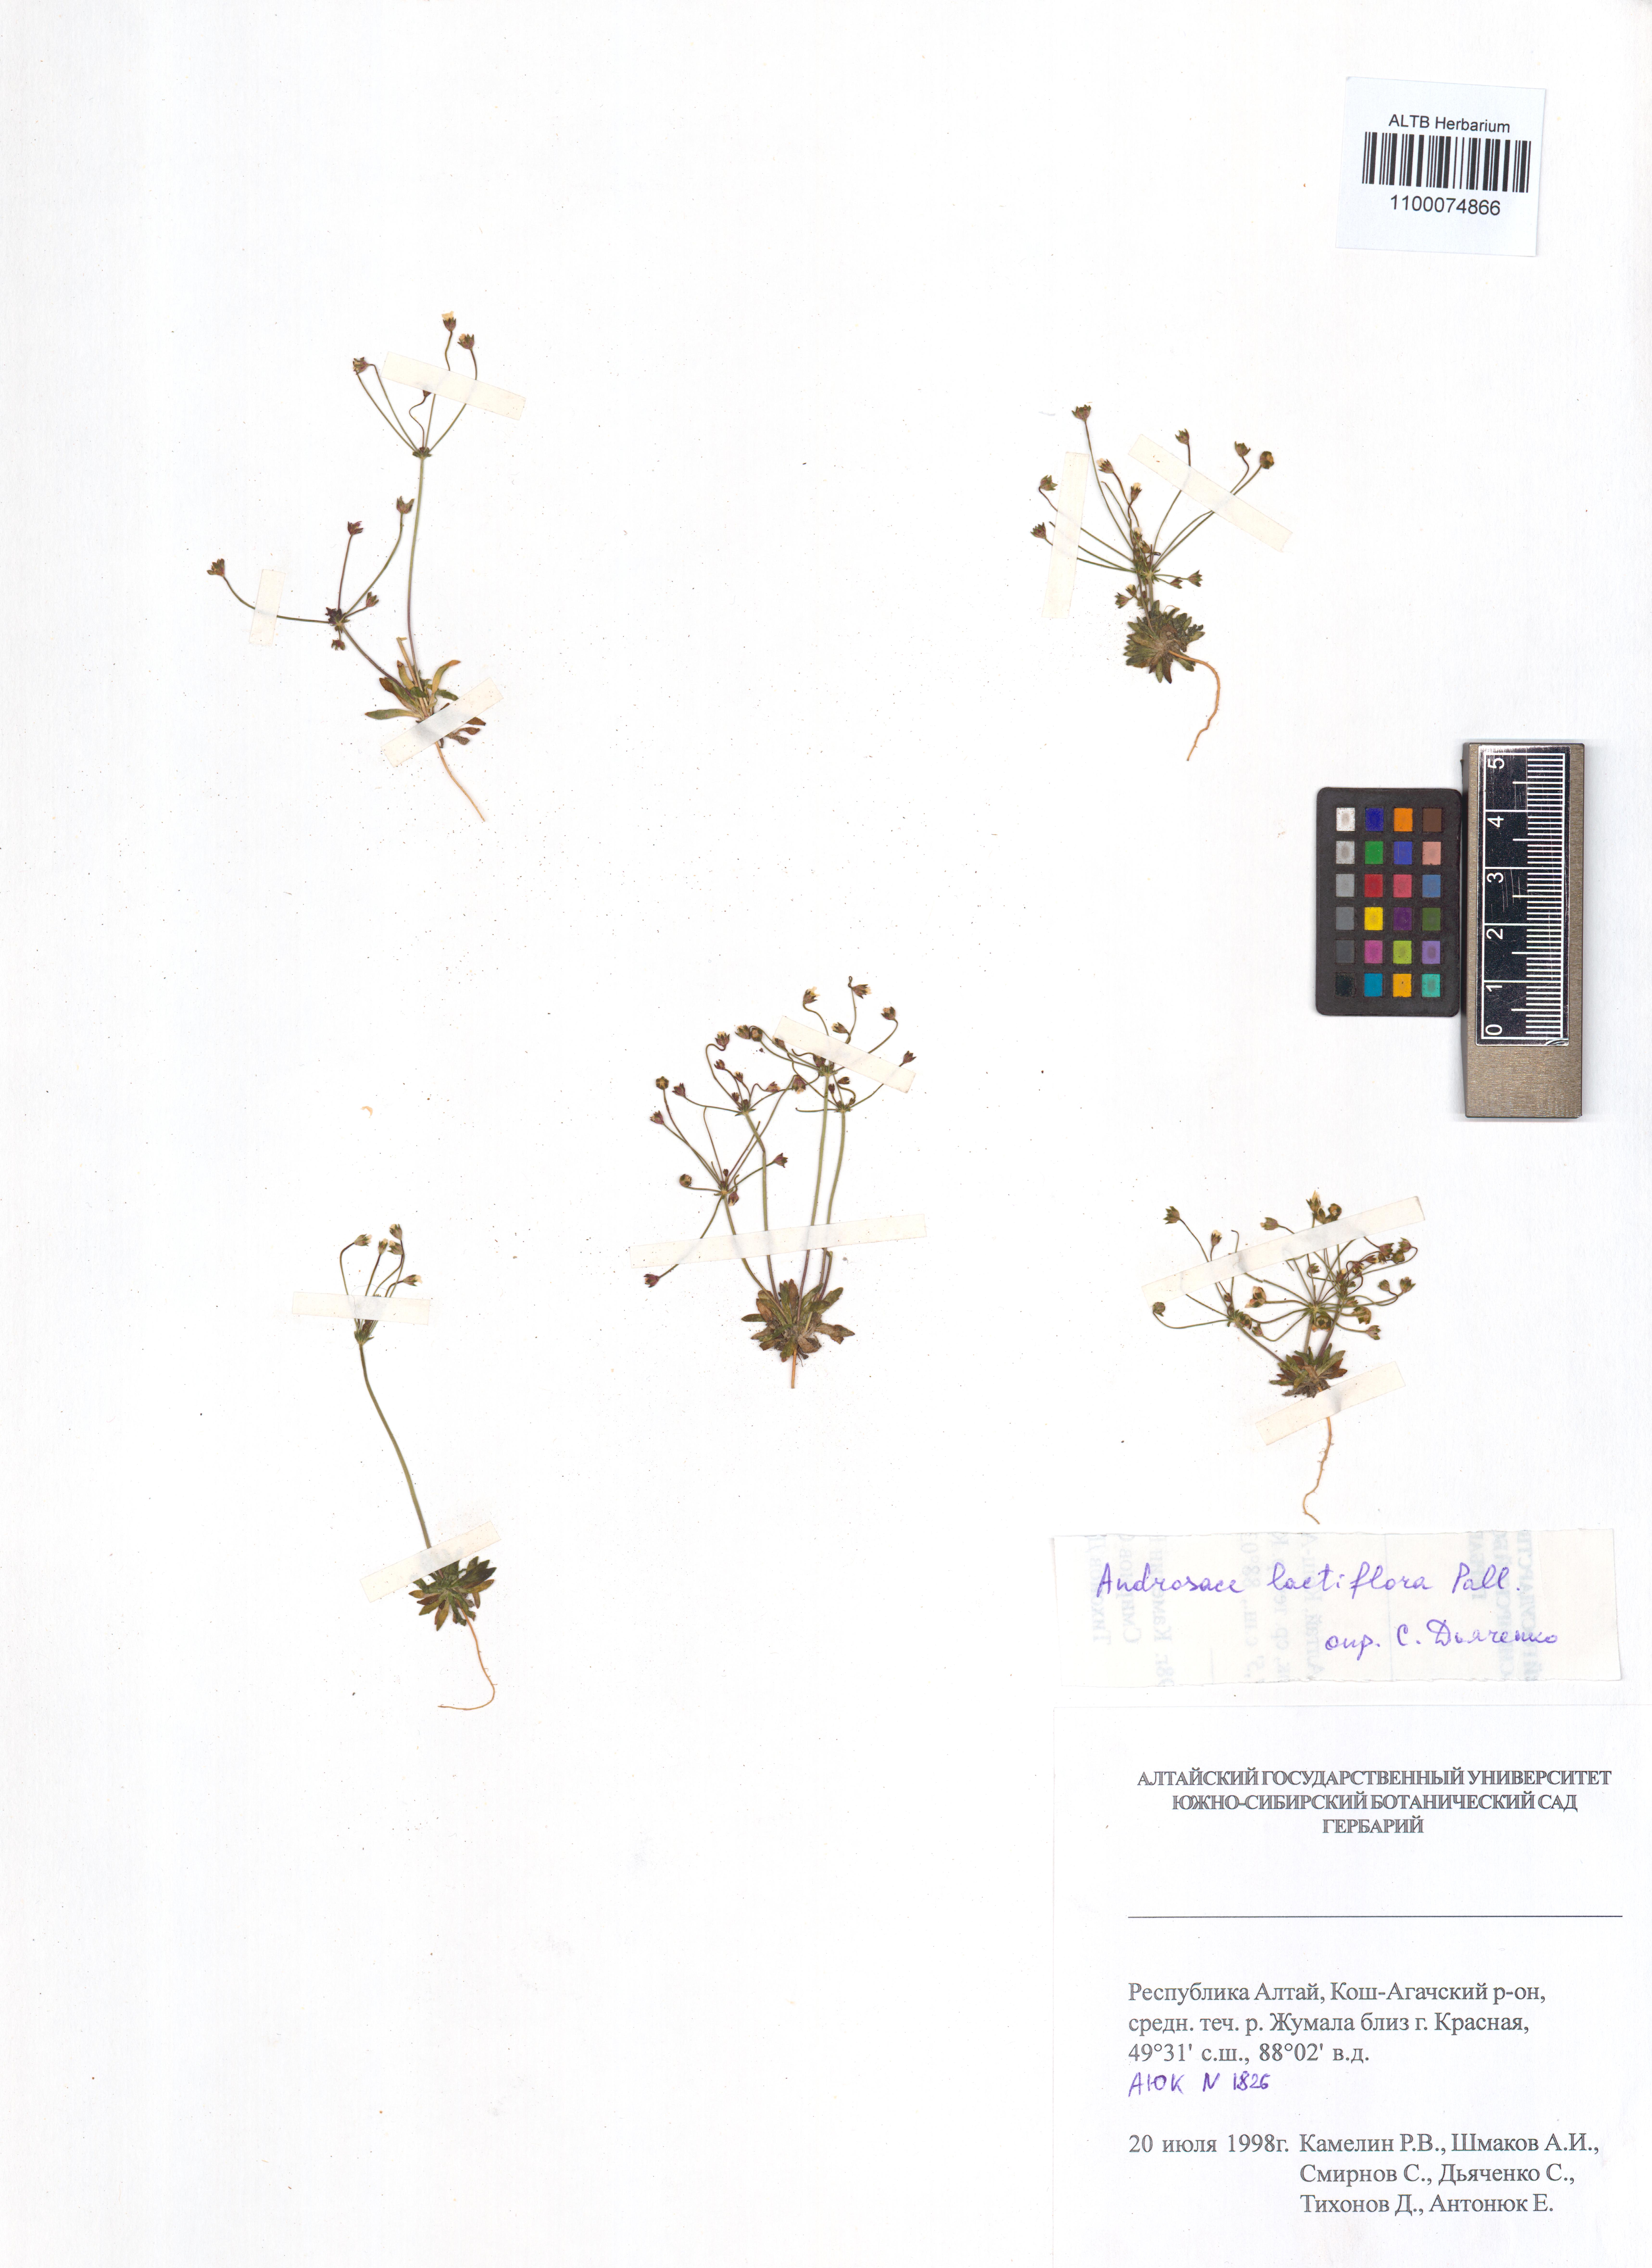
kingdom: Plantae
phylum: Tracheophyta
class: Magnoliopsida
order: Ericales
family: Primulaceae
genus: Androsace
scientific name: Androsace lactiflora
